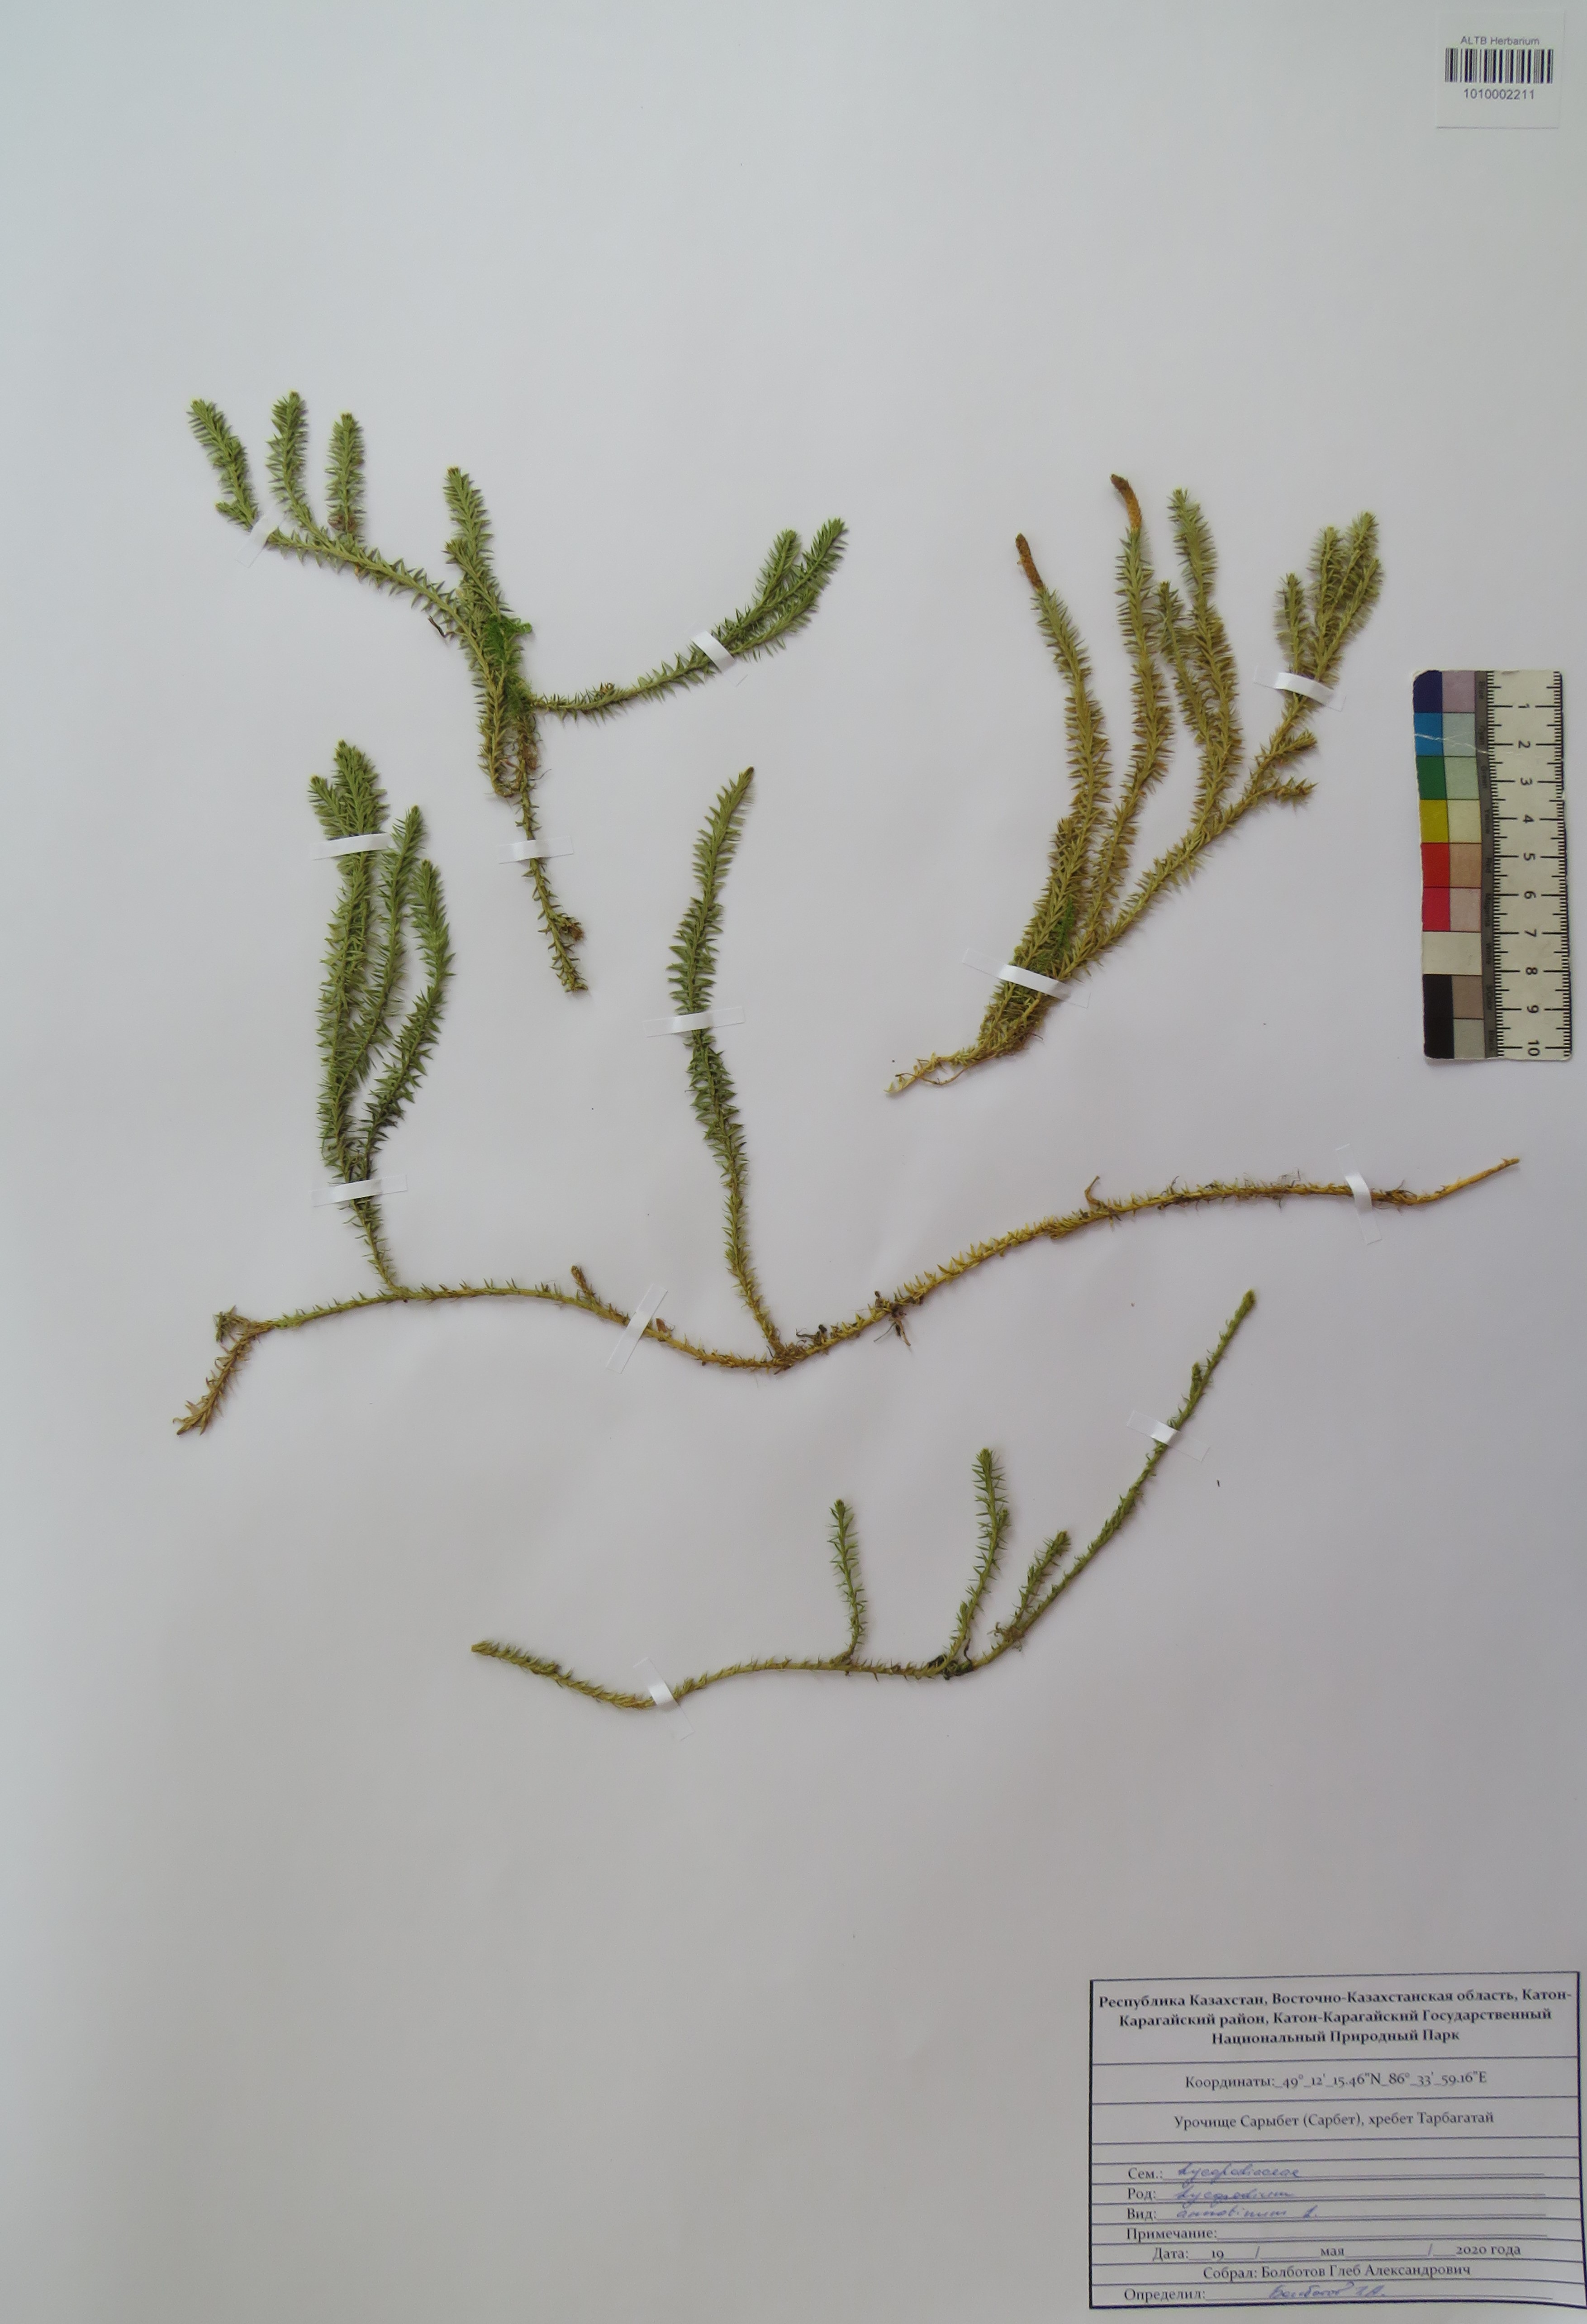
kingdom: Plantae
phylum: Tracheophyta
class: Lycopodiopsida
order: Lycopodiales
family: Lycopodiaceae
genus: Spinulum
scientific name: Spinulum annotinum
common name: Interrupted club-moss
